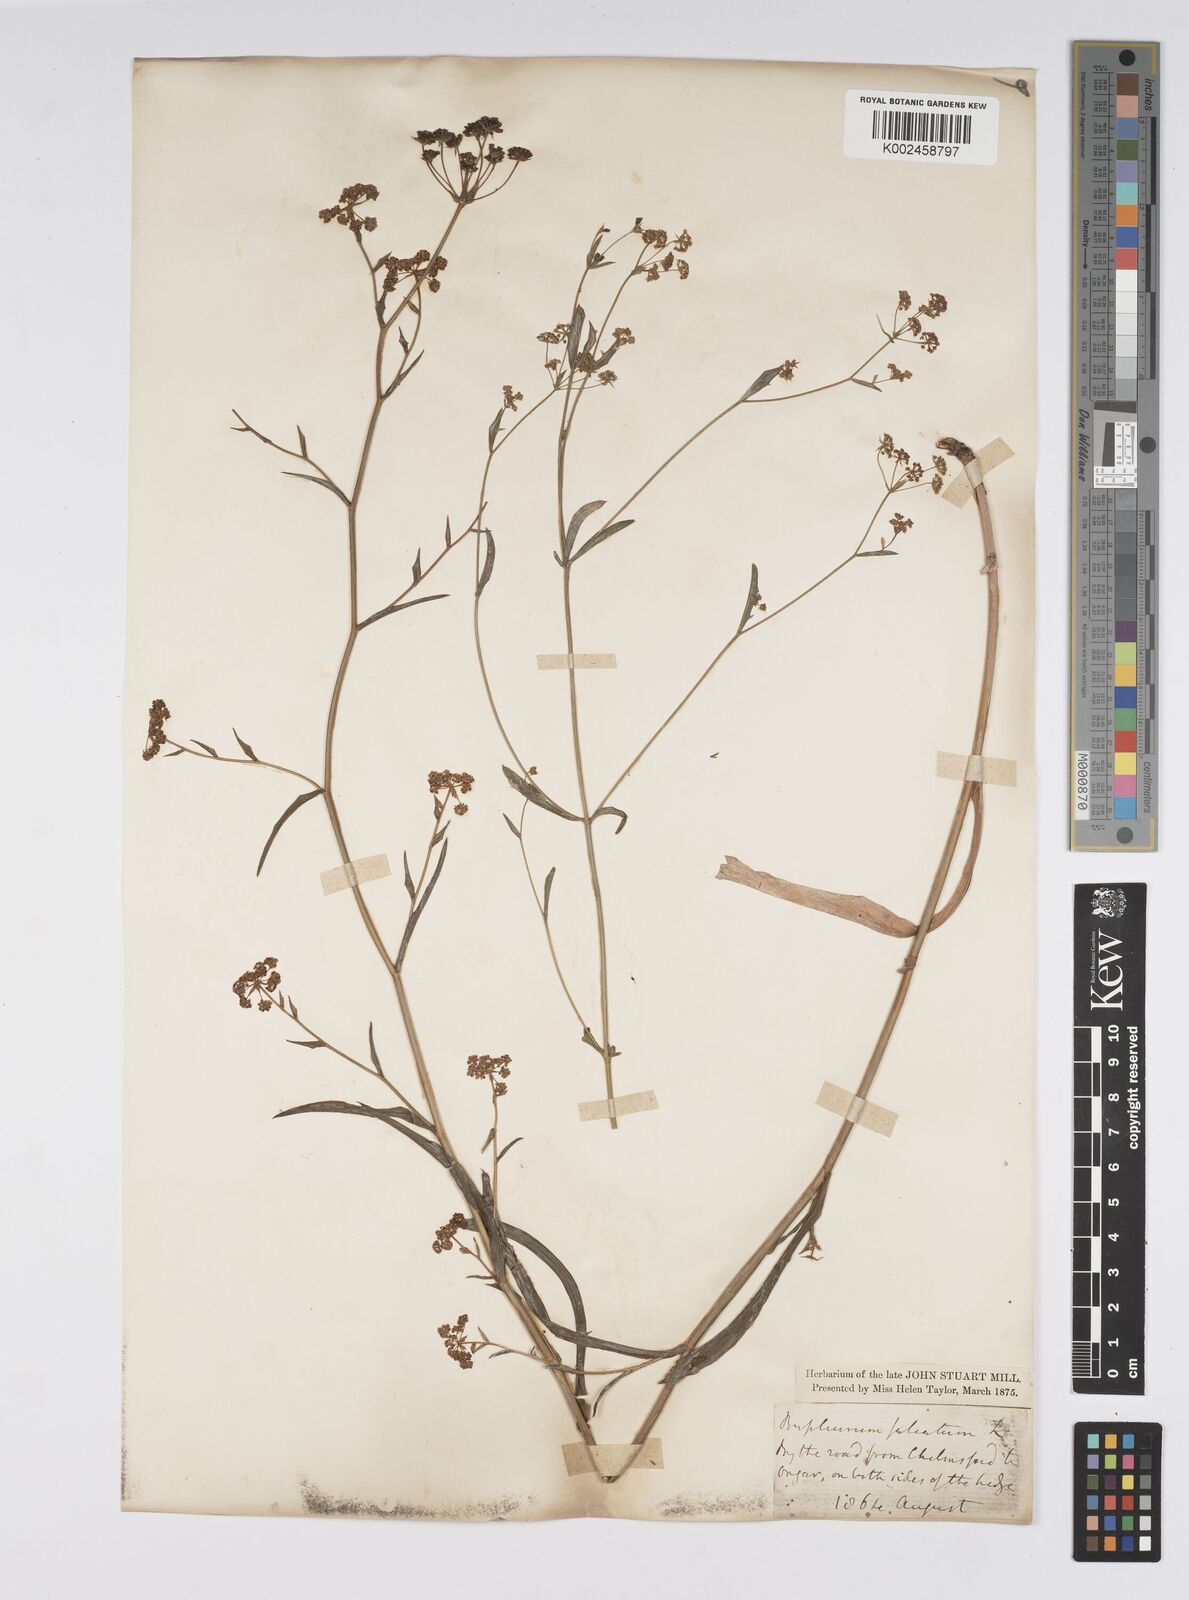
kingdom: Plantae
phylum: Tracheophyta
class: Magnoliopsida
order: Apiales
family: Apiaceae
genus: Bupleurum
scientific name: Bupleurum falcatum
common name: Sickle-leaved hare's-ear
